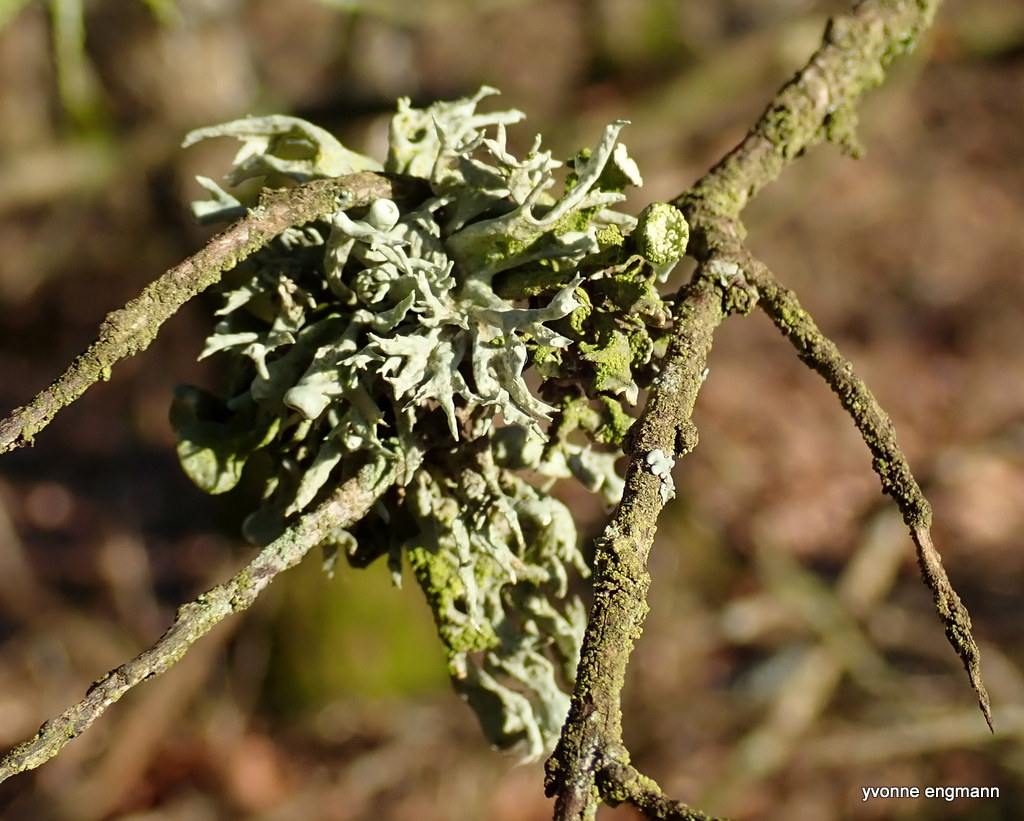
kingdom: Fungi
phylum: Ascomycota
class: Lecanoromycetes
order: Lecanorales
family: Ramalinaceae
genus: Ramalina
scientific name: Ramalina fastigiata
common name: tue-grenlav
